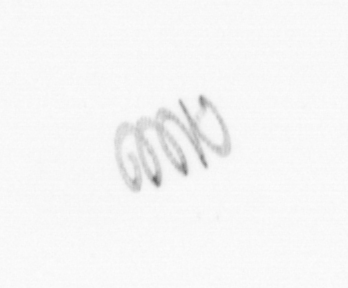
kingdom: Chromista
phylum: Ochrophyta
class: Bacillariophyceae
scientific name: Bacillariophyceae
